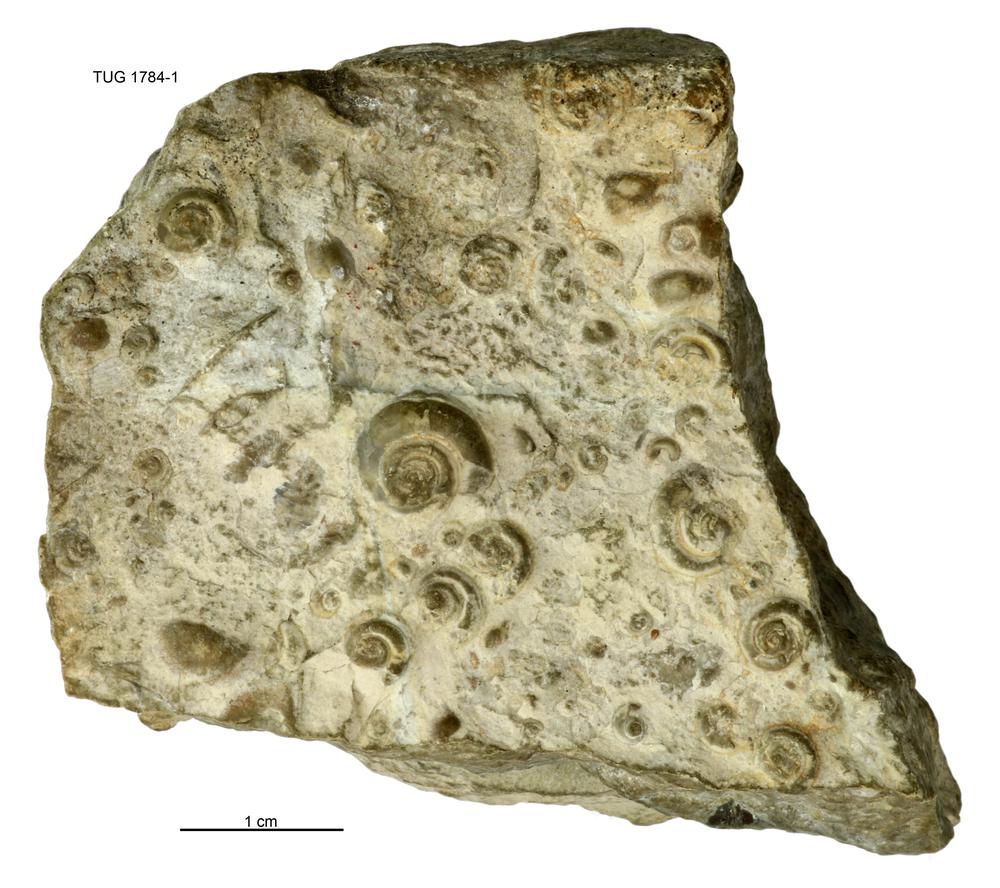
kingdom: Animalia
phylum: Mollusca
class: Gastropoda
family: Pycnomphalidae
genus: Pycnomphalus
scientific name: Pycnomphalus Platyschisma helicites
